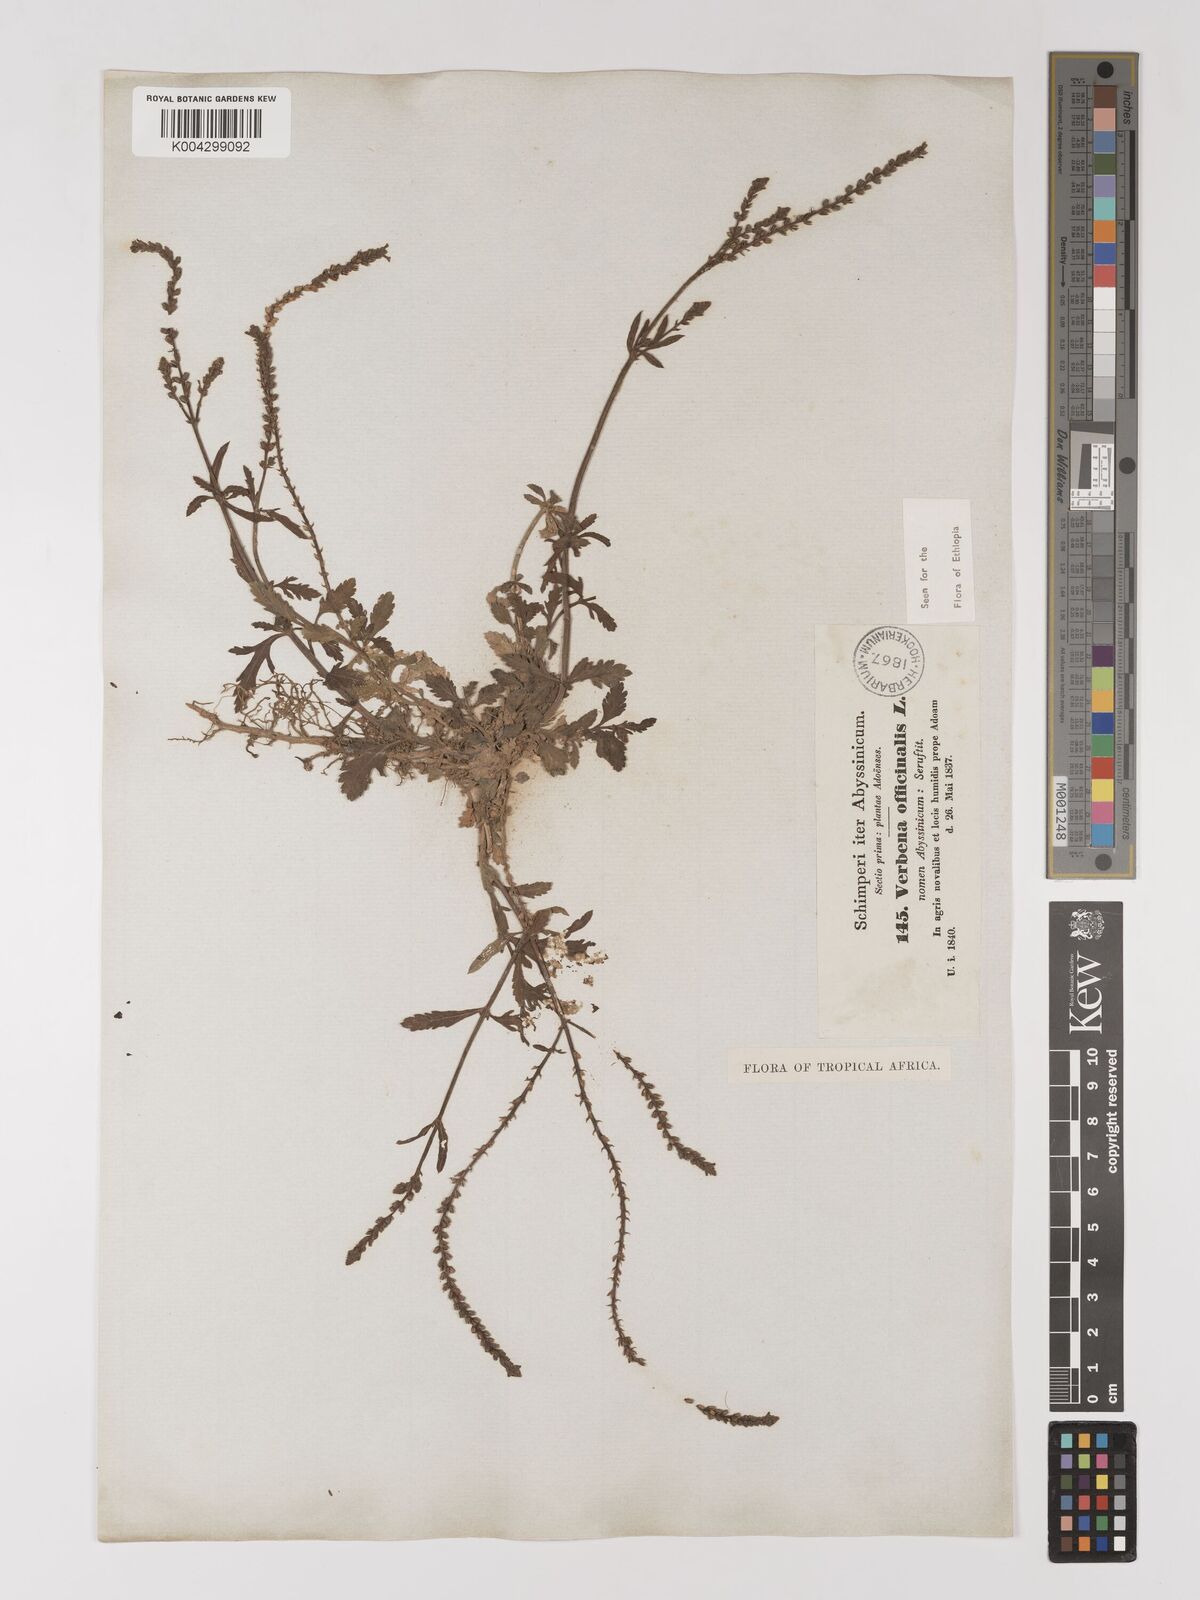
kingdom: Plantae
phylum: Tracheophyta
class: Magnoliopsida
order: Lamiales
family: Verbenaceae
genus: Verbena
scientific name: Verbena officinalis
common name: Vervain
